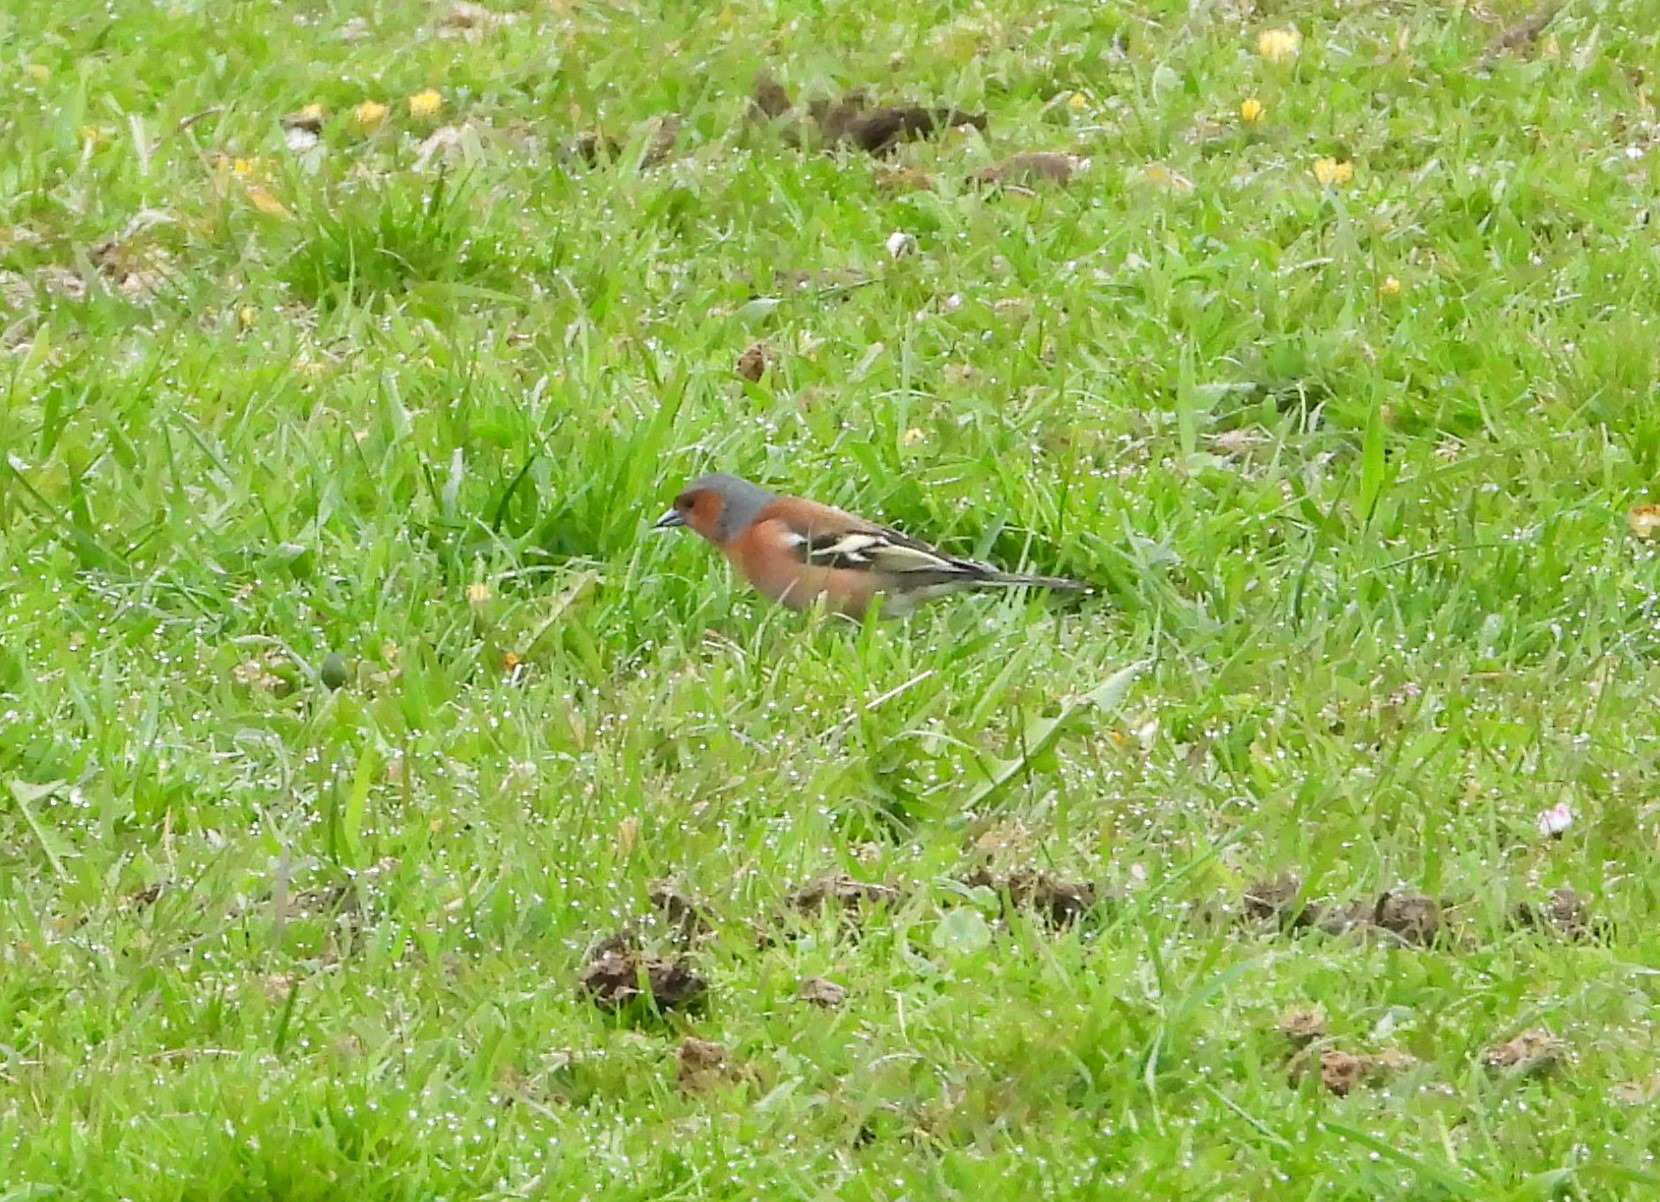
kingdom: Animalia
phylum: Chordata
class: Aves
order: Passeriformes
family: Fringillidae
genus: Fringilla
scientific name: Fringilla coelebs
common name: Bogfinke
